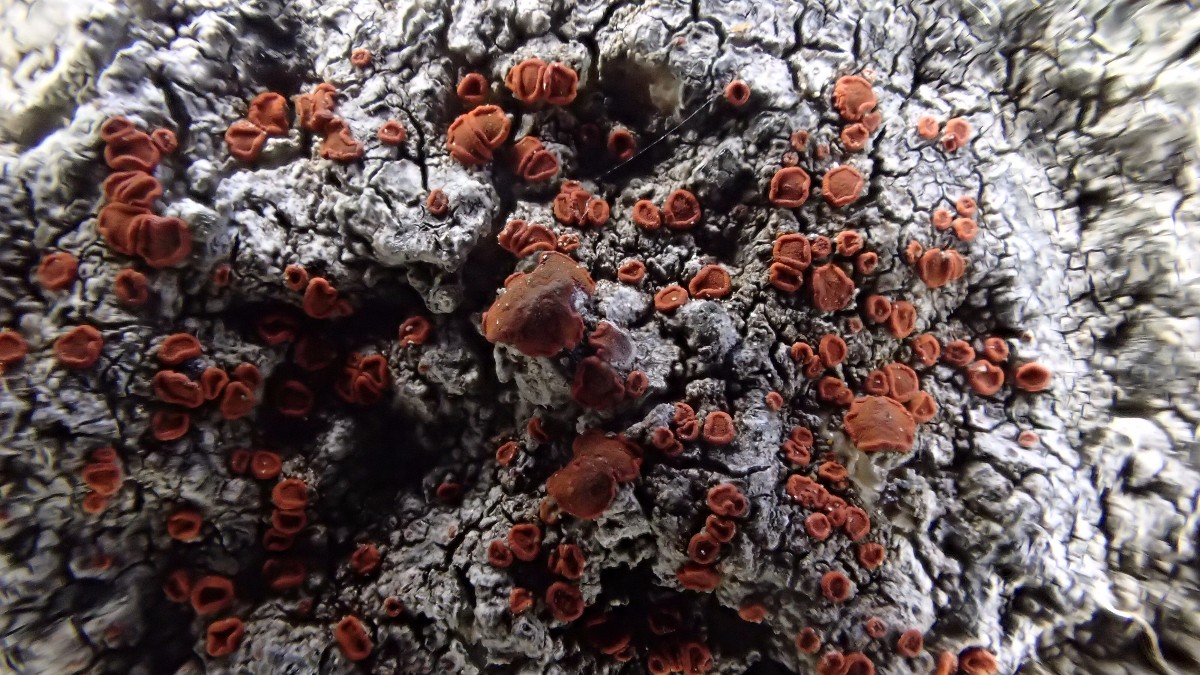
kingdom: Fungi
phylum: Ascomycota
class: Lecanoromycetes
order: Teloschistales
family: Teloschistaceae
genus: Blastenia
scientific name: Blastenia crenularia
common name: pyntelig orangelav
